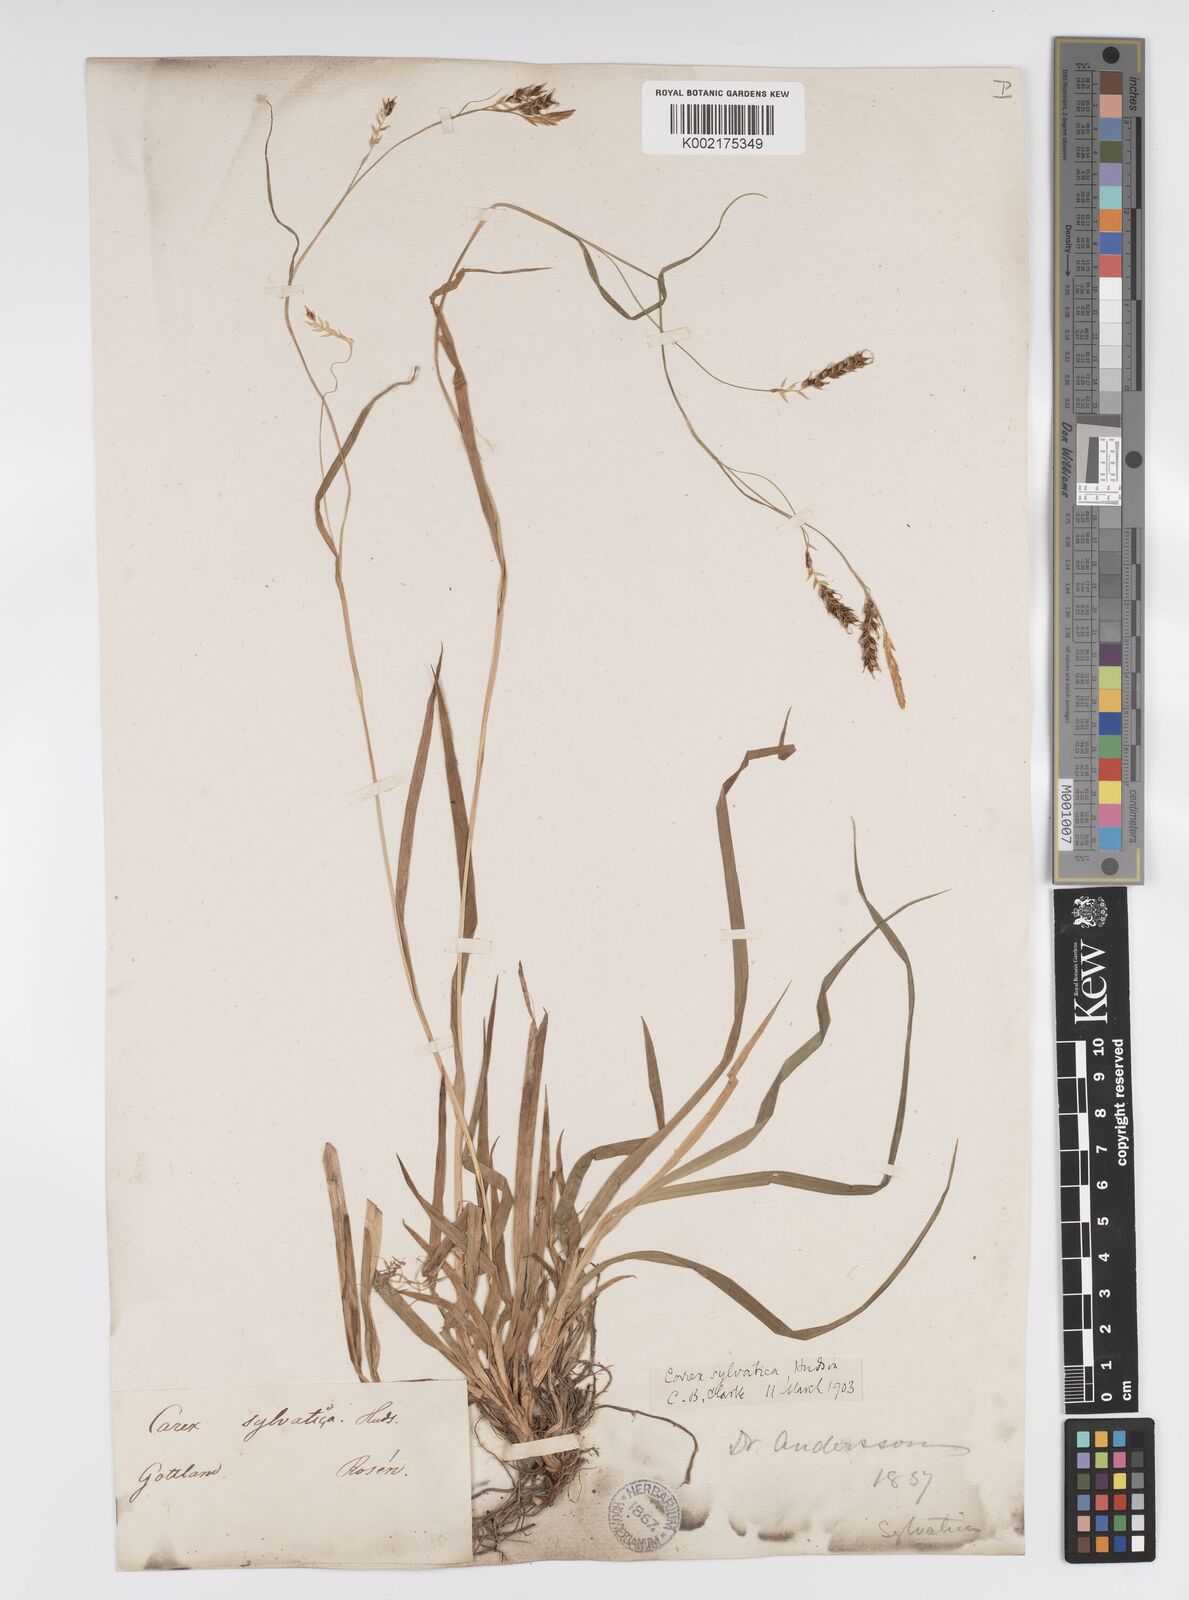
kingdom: Plantae
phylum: Tracheophyta
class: Liliopsida
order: Poales
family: Cyperaceae
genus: Carex
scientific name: Carex sylvatica
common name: Wood-sedge
